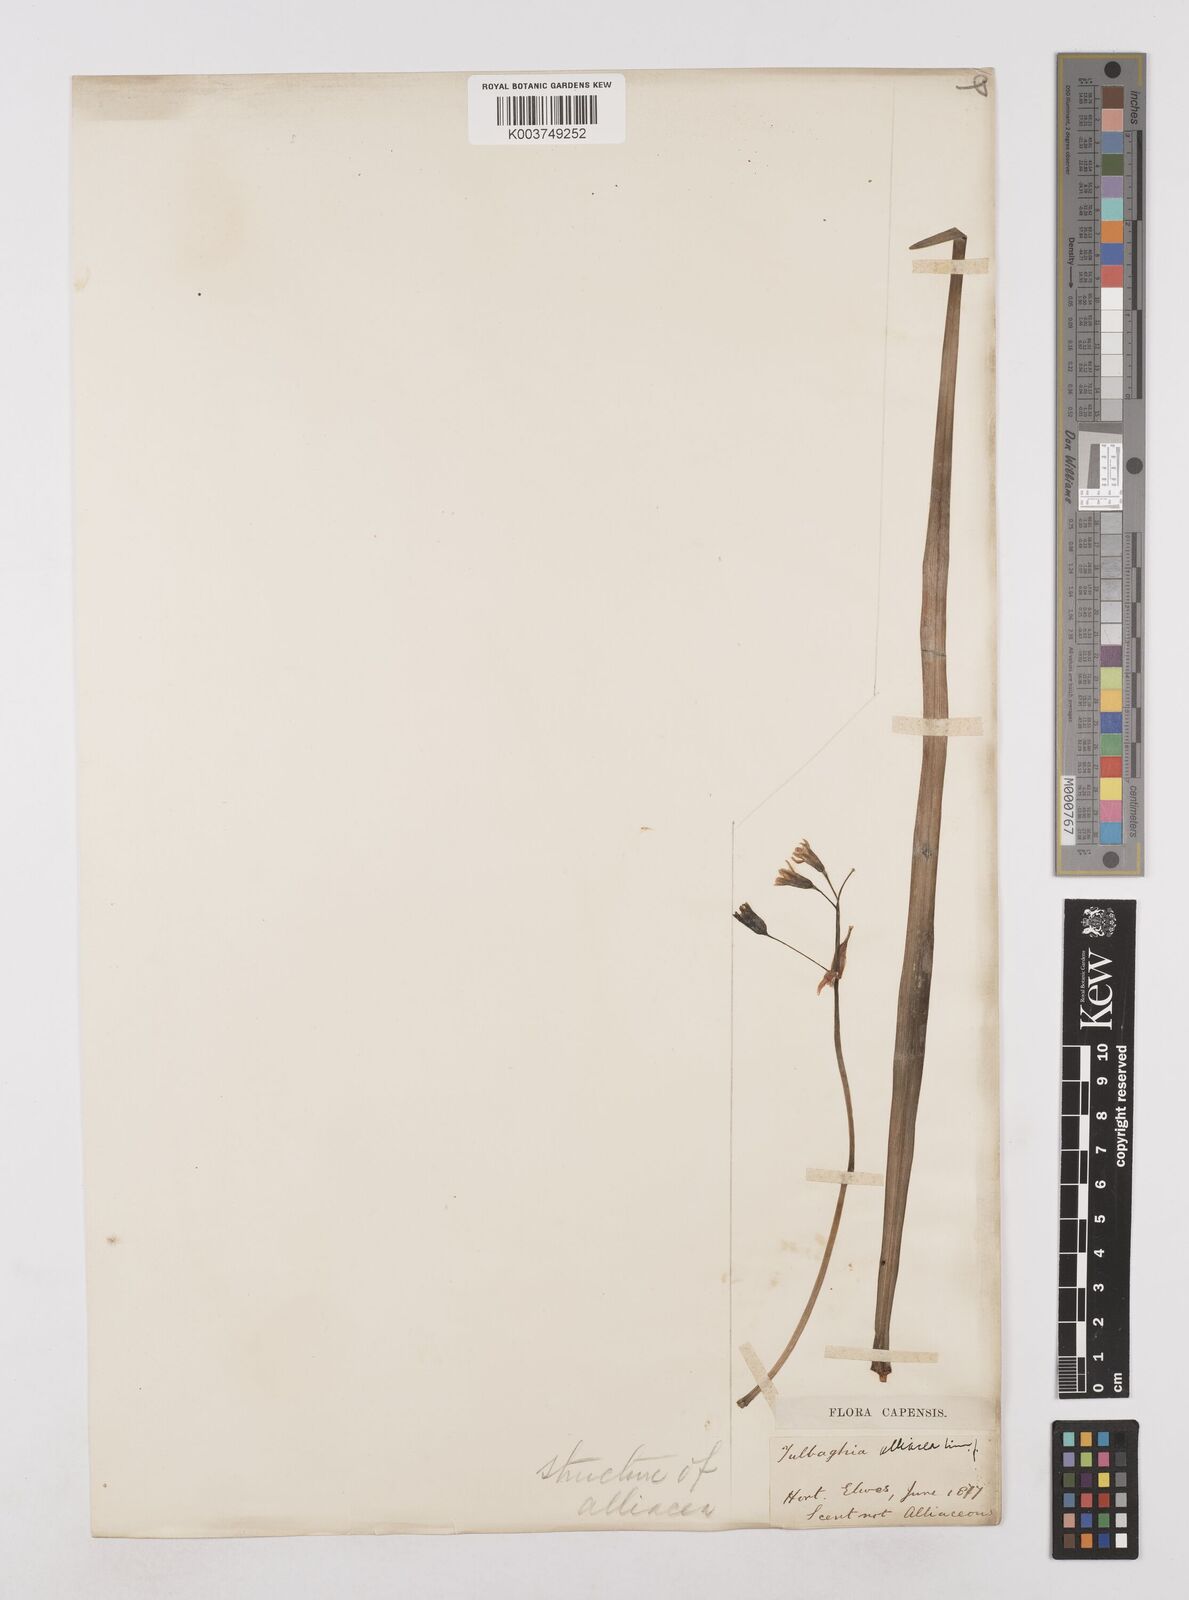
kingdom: Plantae
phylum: Tracheophyta
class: Liliopsida
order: Asparagales
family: Amaryllidaceae
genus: Tulbaghia
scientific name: Tulbaghia alliacea
